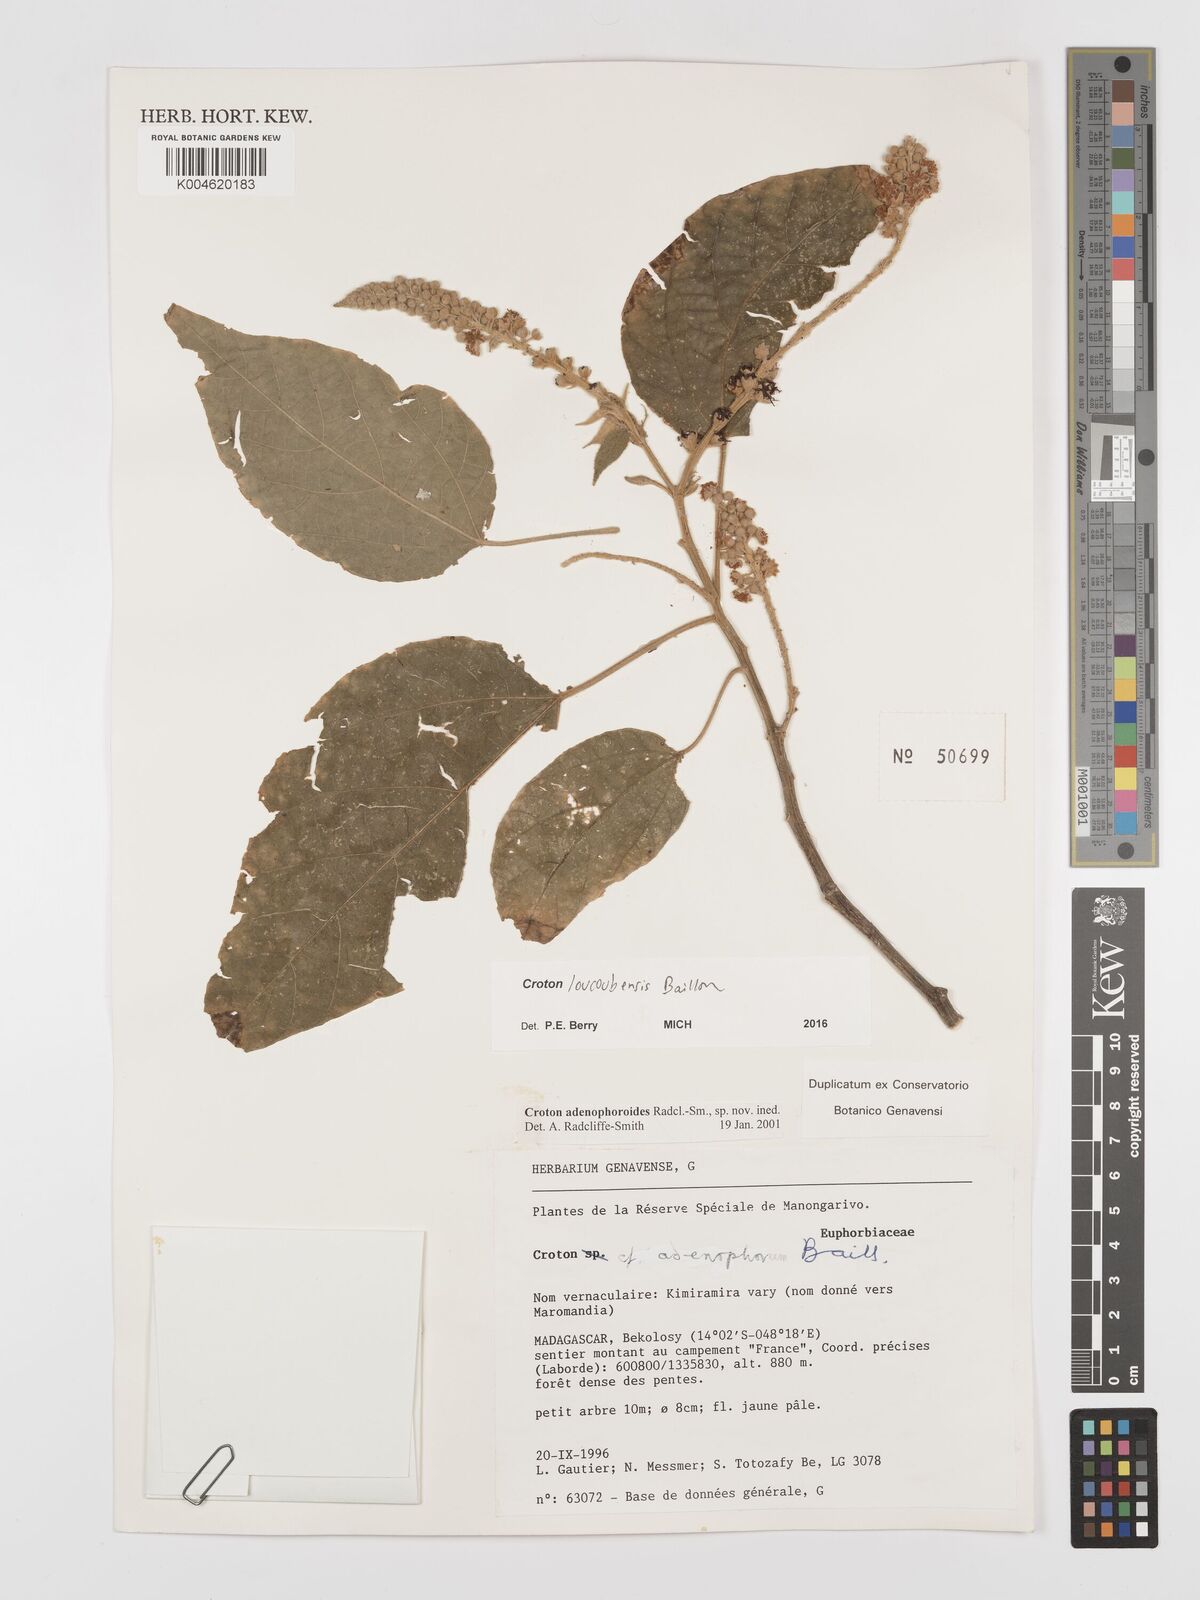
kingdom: Plantae
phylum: Tracheophyta
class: Magnoliopsida
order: Malpighiales
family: Euphorbiaceae
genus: Croton
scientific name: Croton loucoubensis
